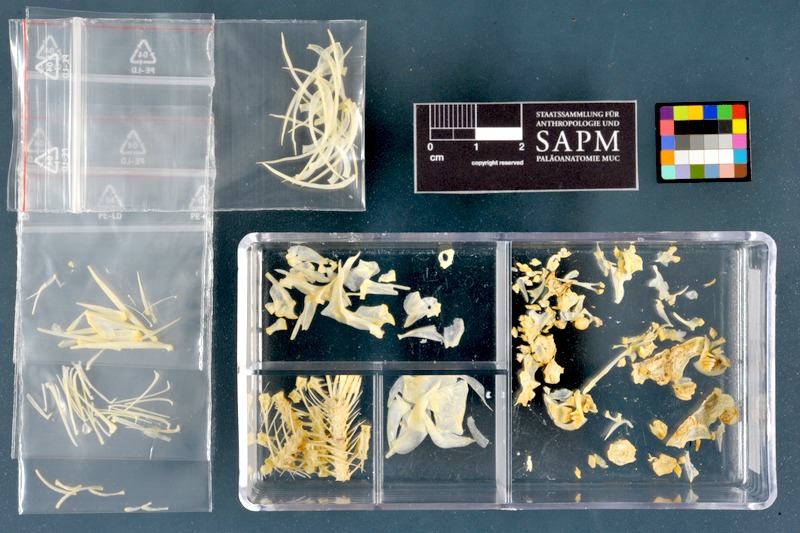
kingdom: Animalia
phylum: Chordata
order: Cypriniformes
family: Cyprinidae
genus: Acanthobrama
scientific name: Acanthobrama marmid
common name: Mesopotamian bream
